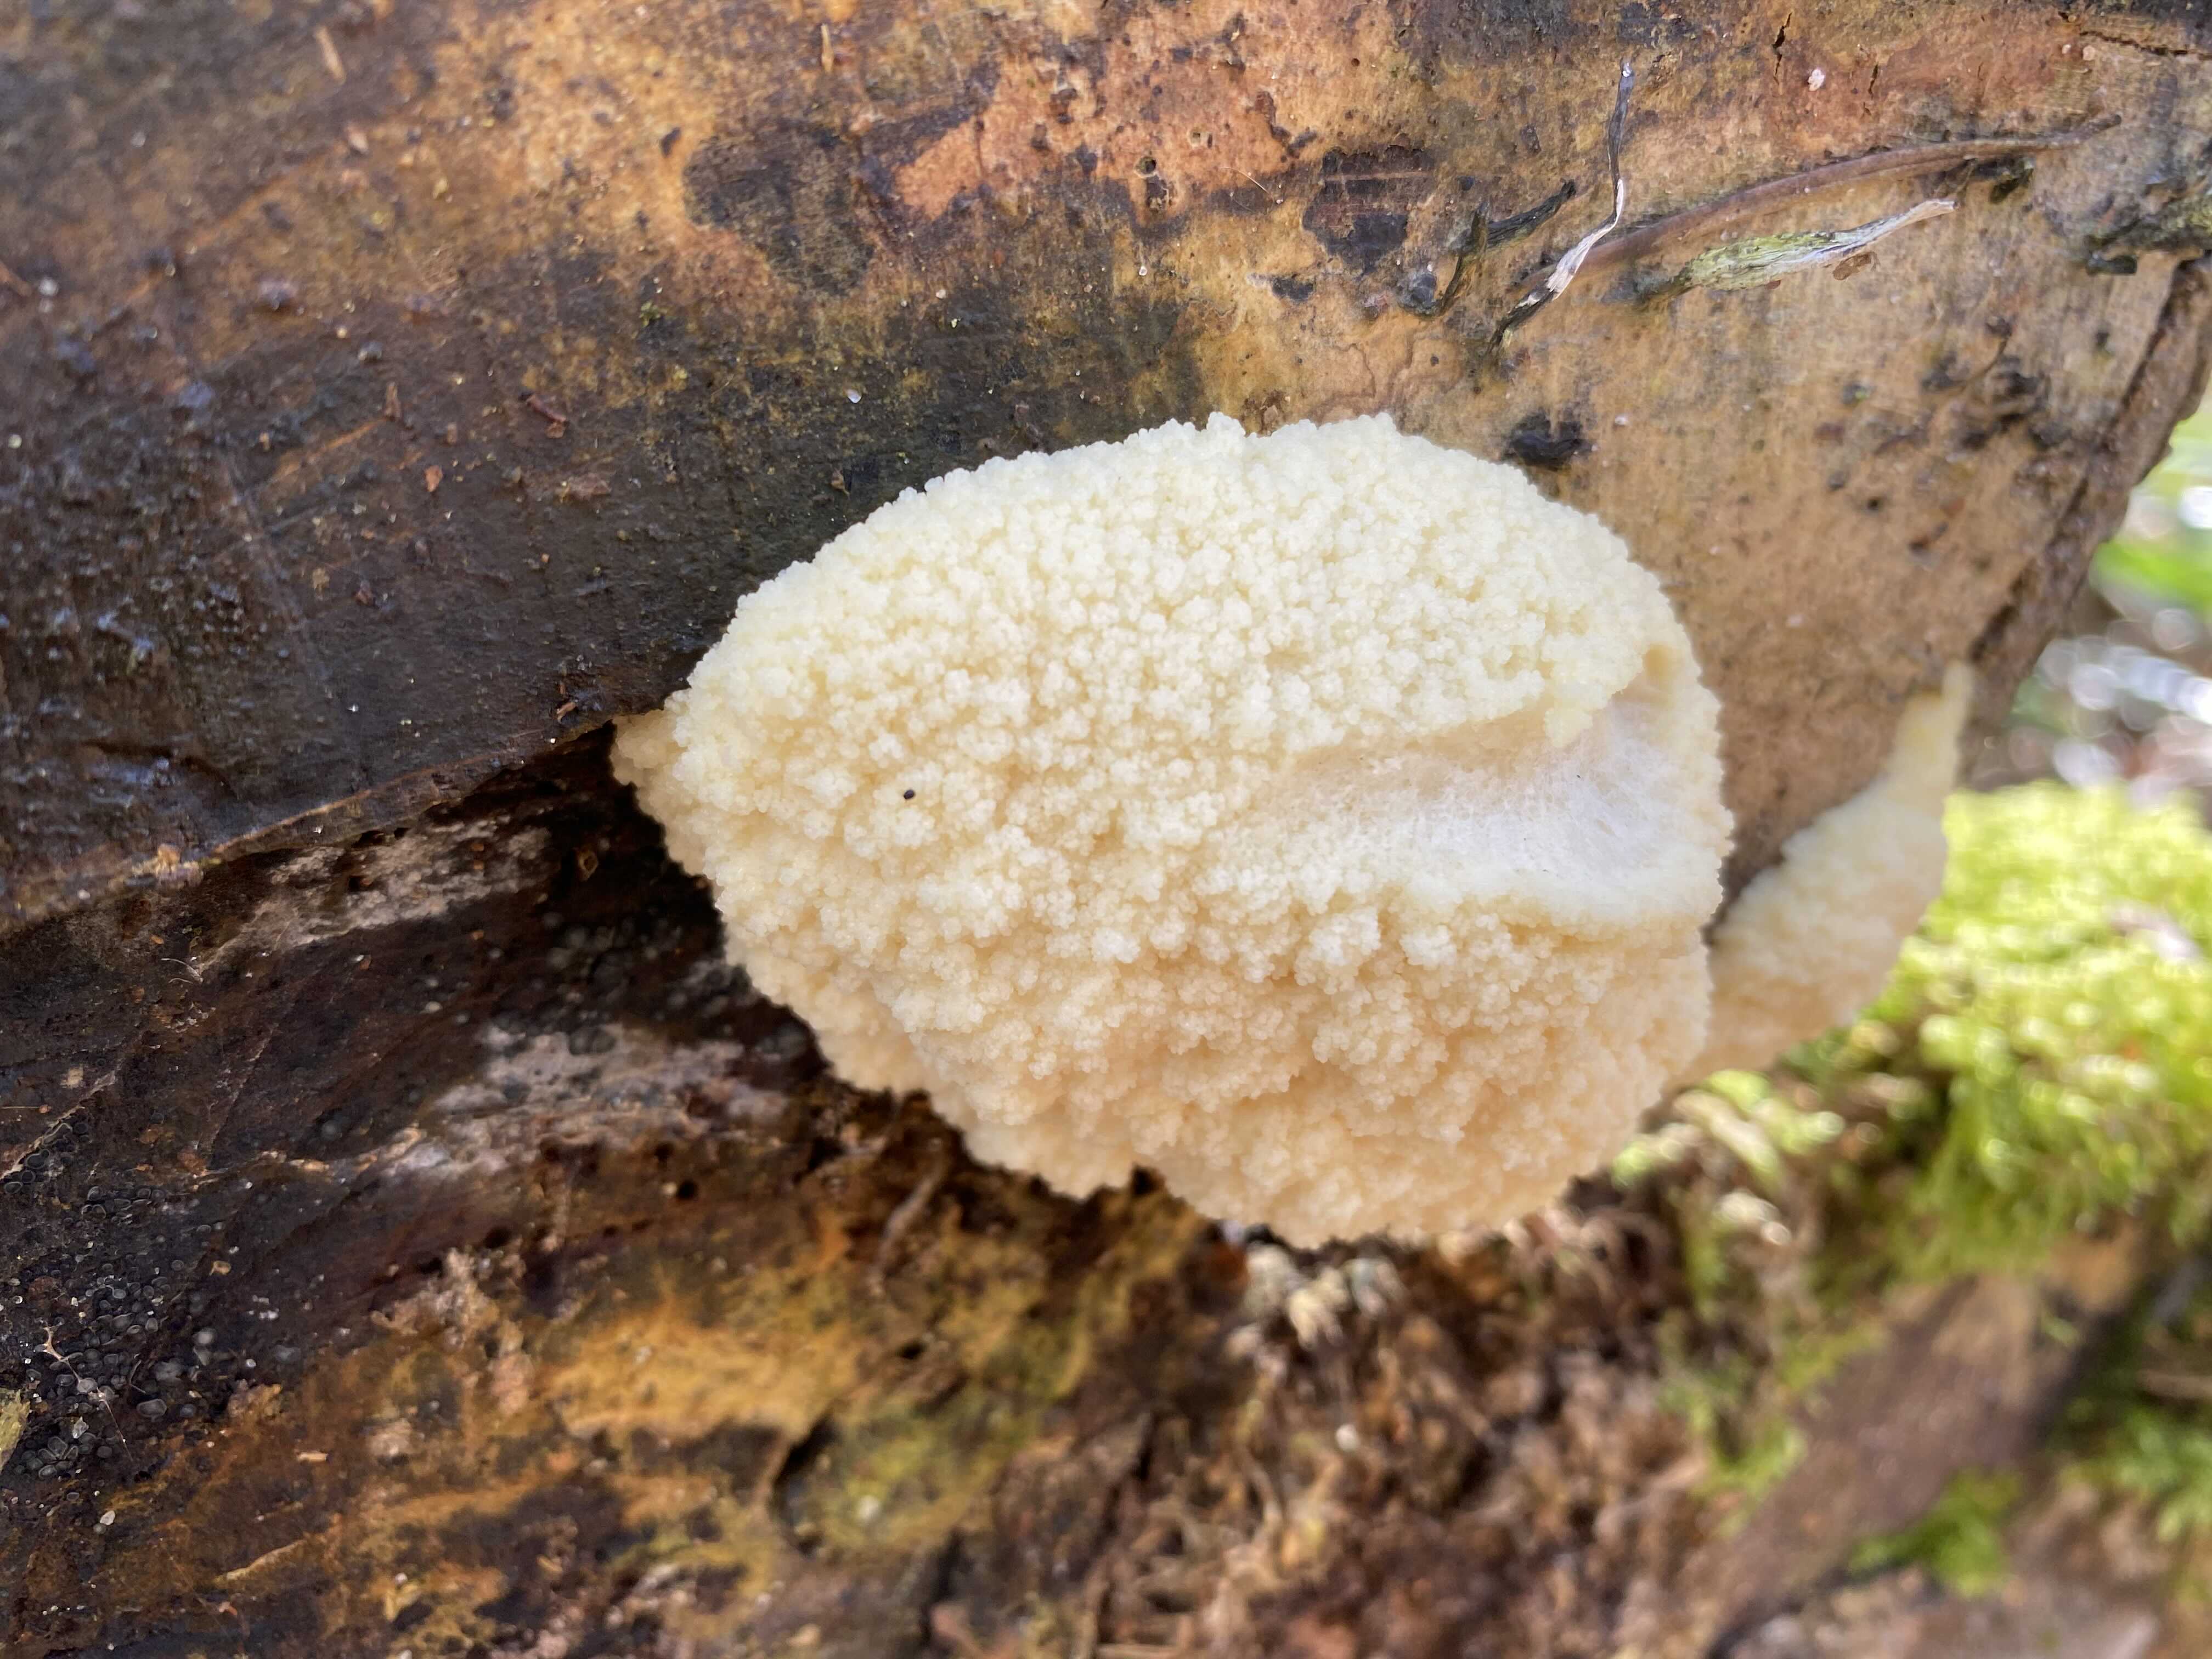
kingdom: Protozoa
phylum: Mycetozoa
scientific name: Mycetozoa
